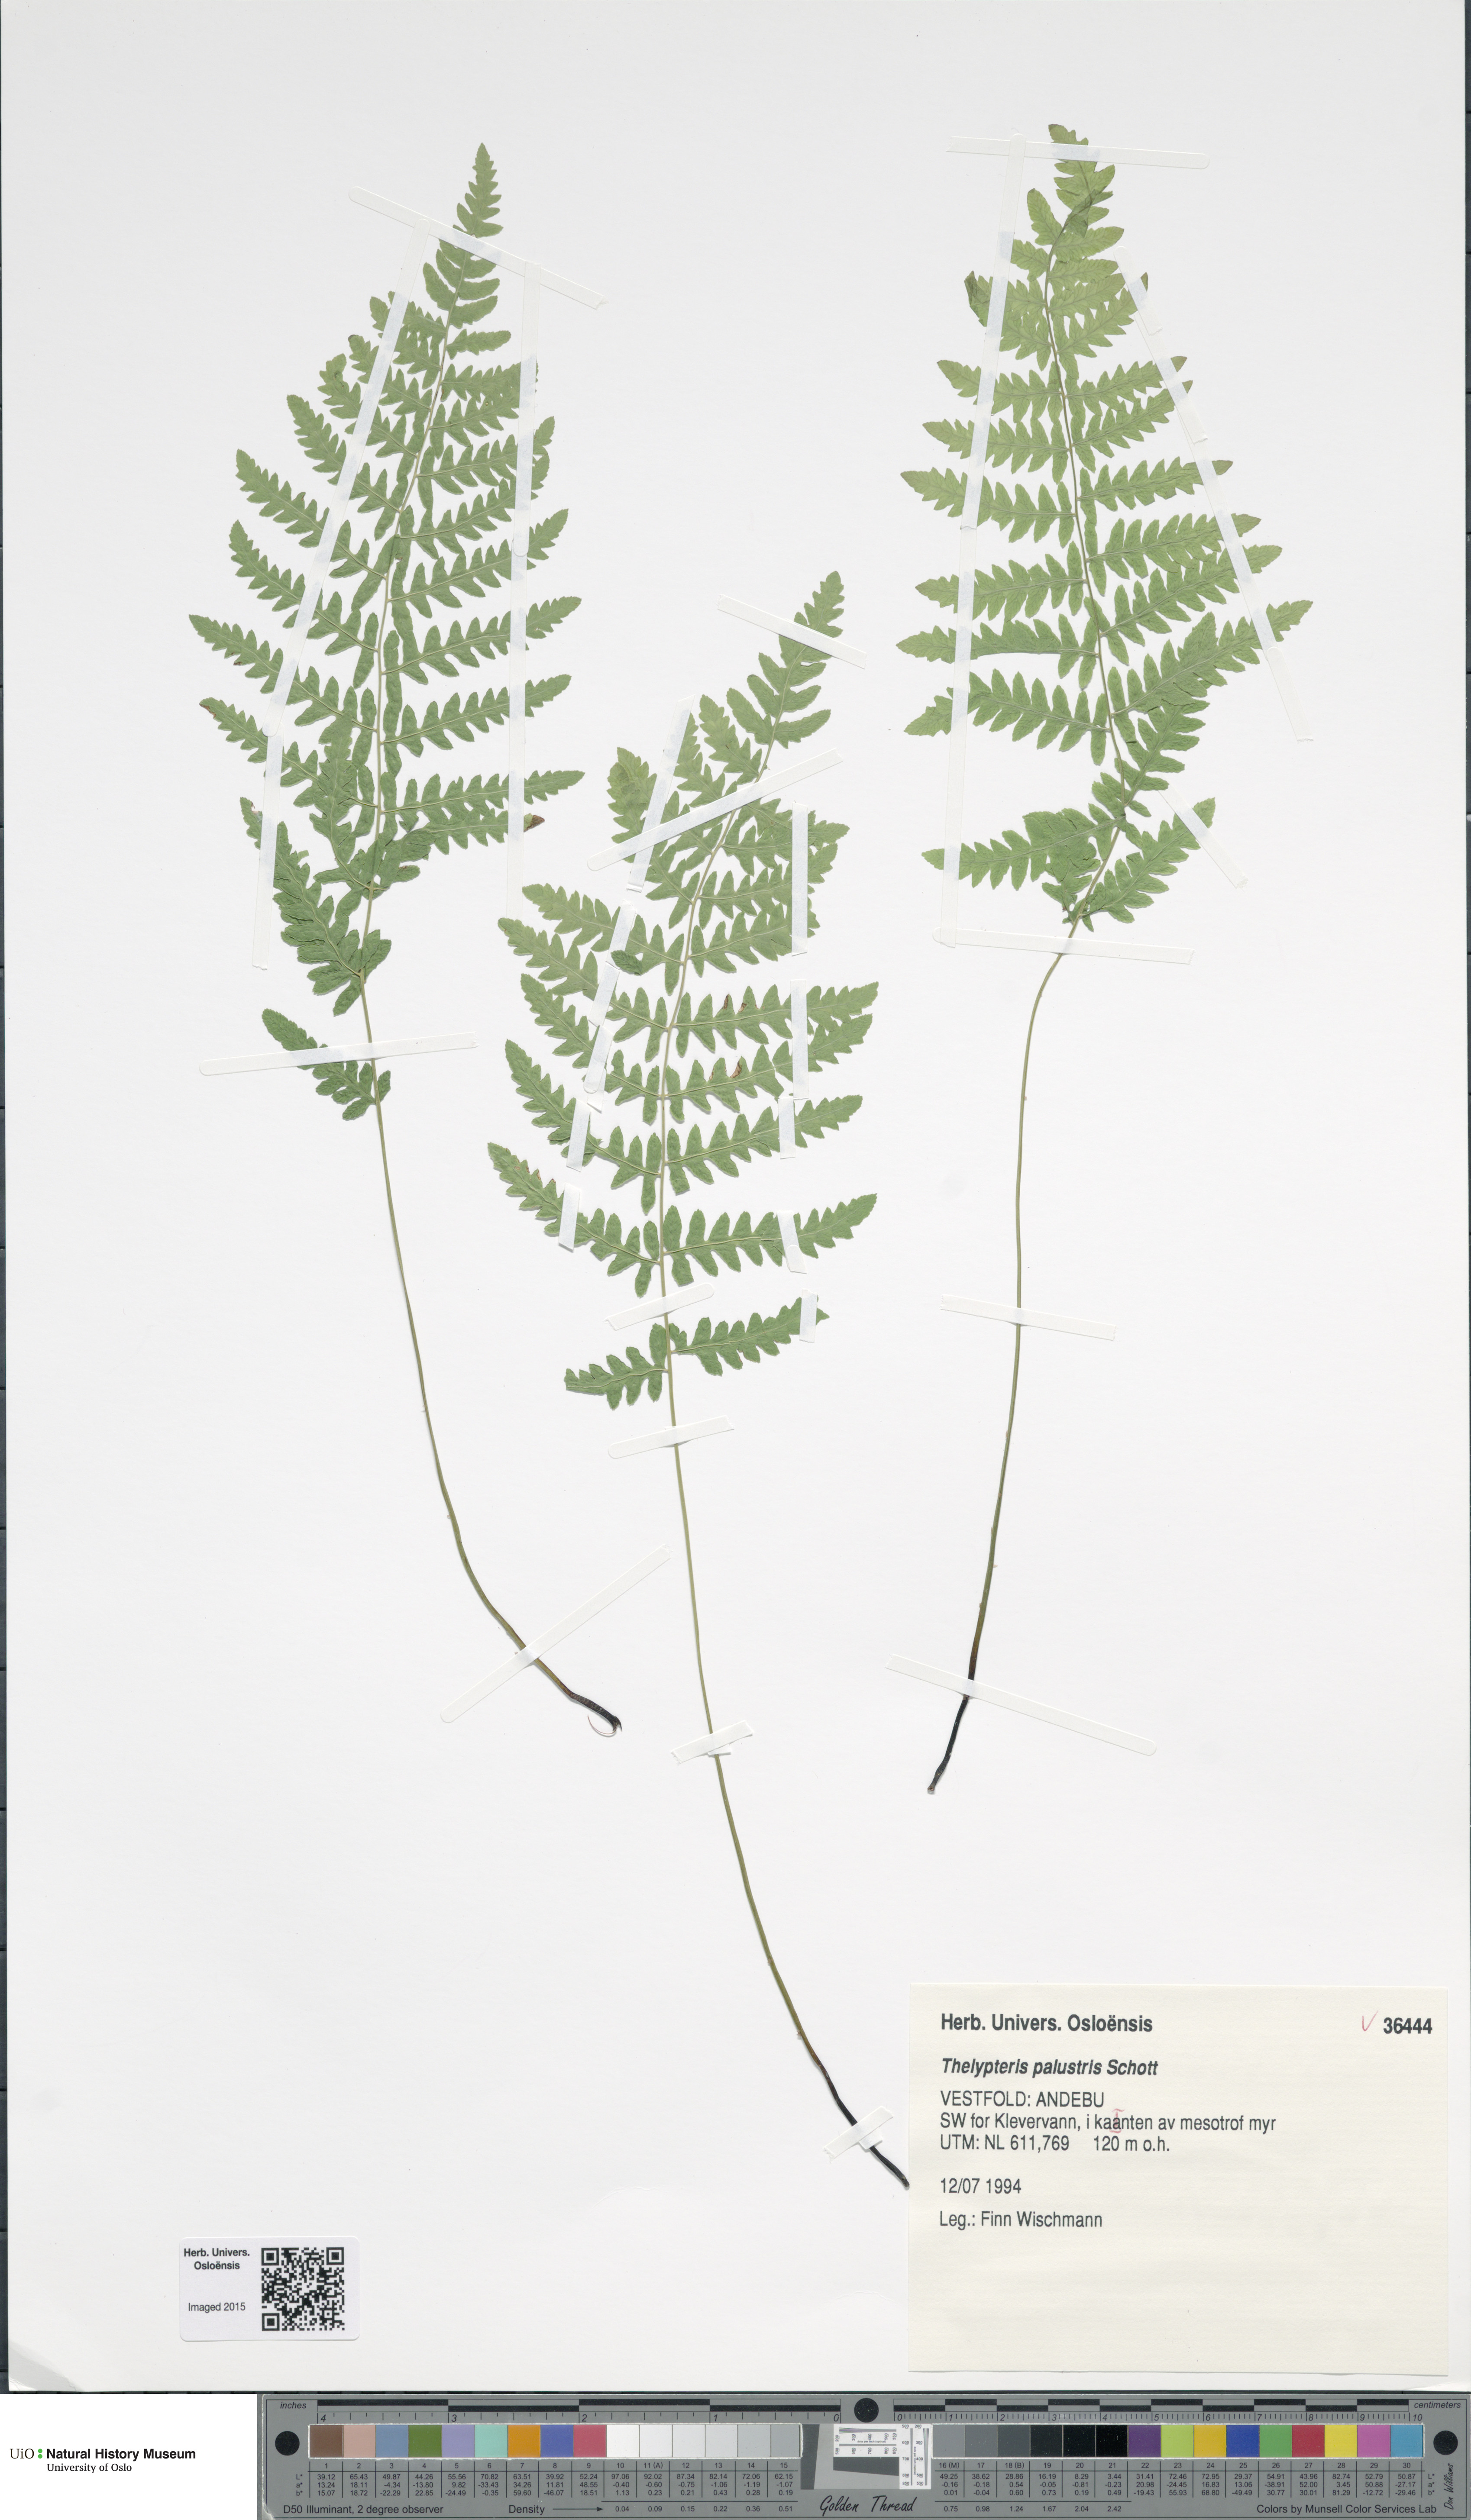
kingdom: Plantae
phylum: Tracheophyta
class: Polypodiopsida
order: Polypodiales
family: Thelypteridaceae
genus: Thelypteris
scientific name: Thelypteris palustris
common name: Marsh fern
